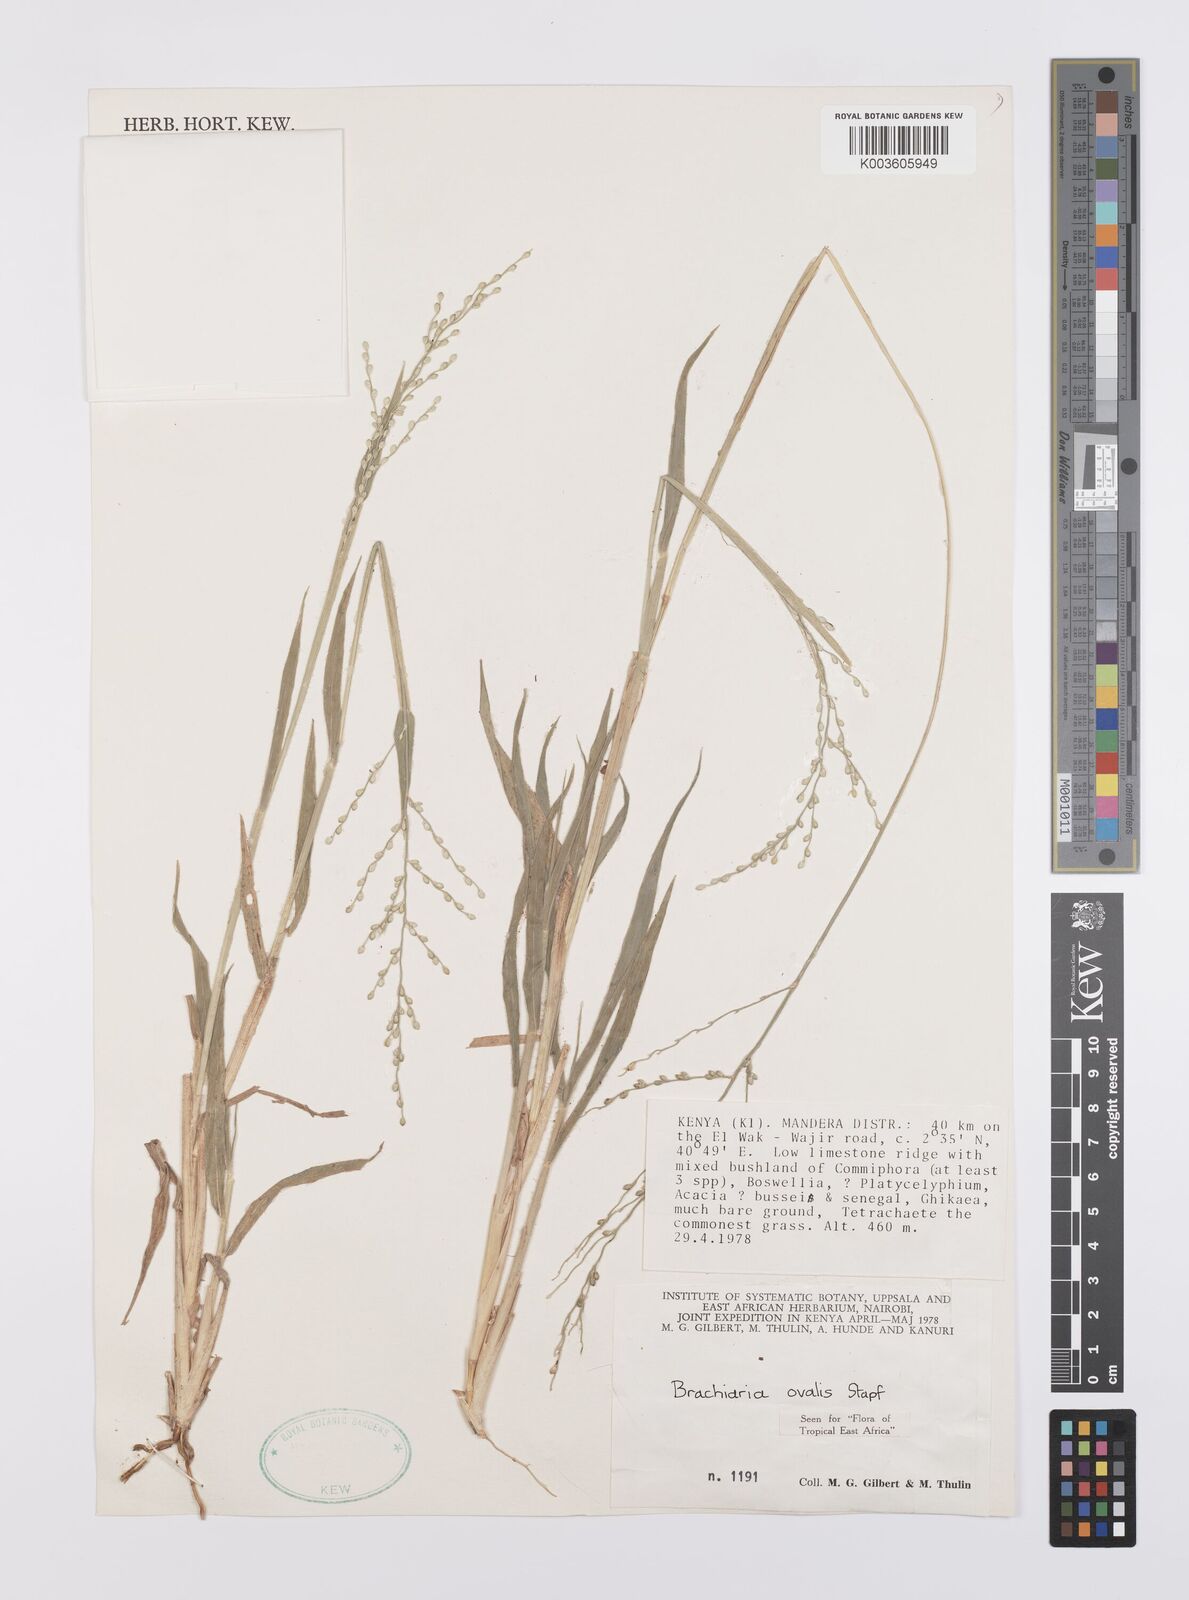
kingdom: Plantae
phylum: Tracheophyta
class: Liliopsida
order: Poales
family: Poaceae
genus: Urochloa
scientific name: Urochloa ovalis
